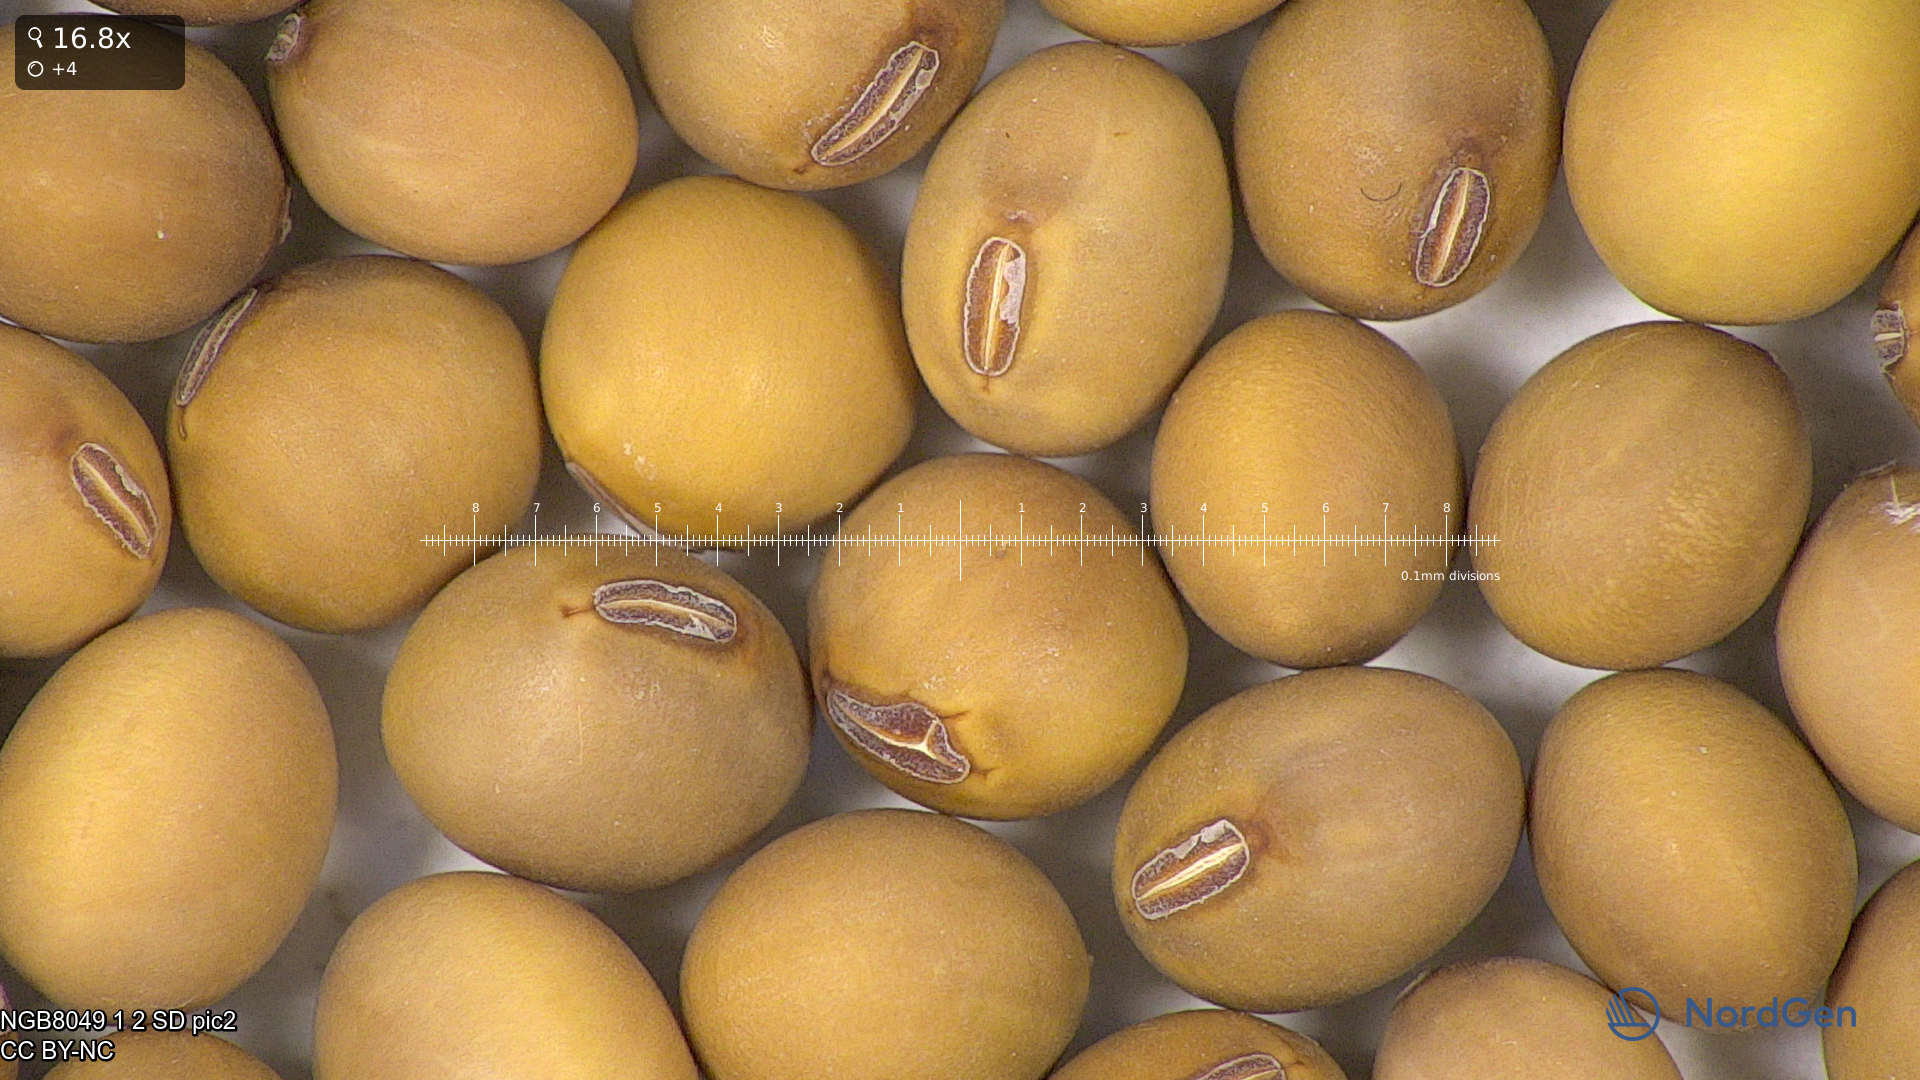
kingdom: Plantae
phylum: Tracheophyta
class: Magnoliopsida
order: Fabales
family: Fabaceae
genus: Glycine
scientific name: Glycine max
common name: Soya-bean
